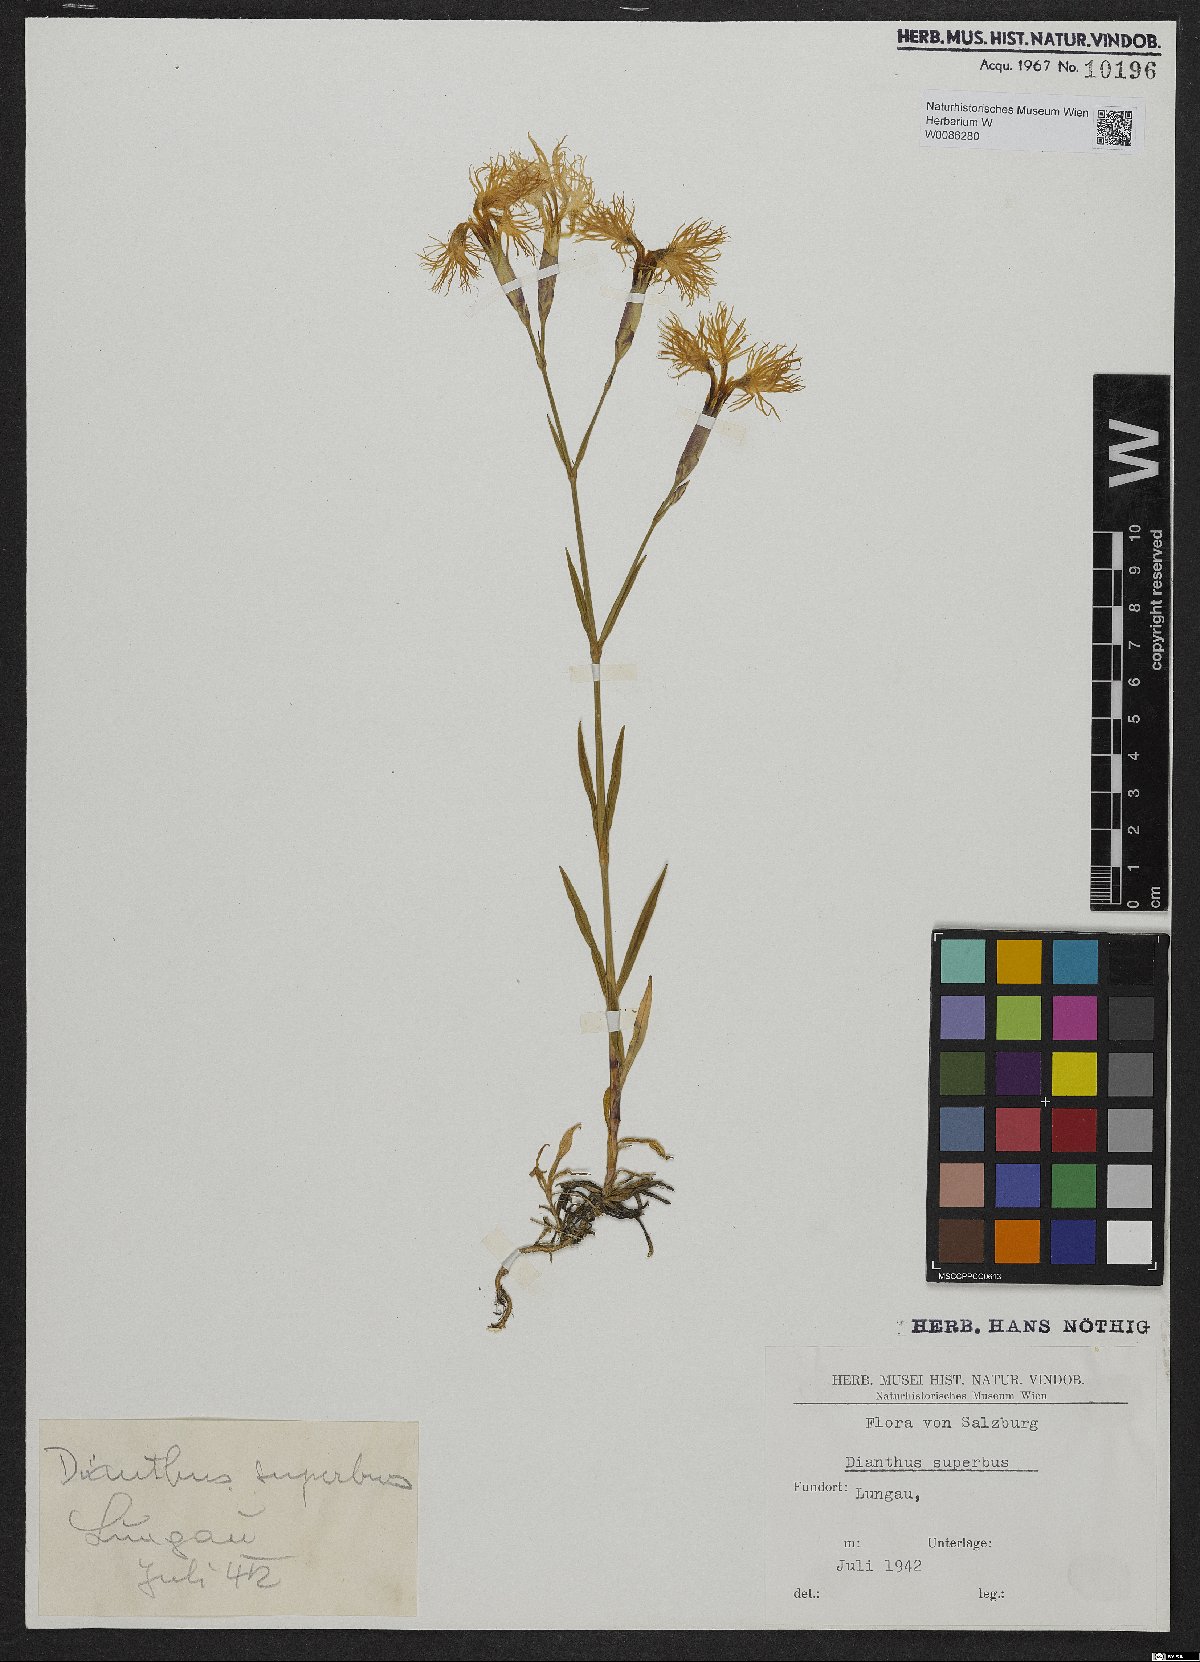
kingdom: Plantae
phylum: Tracheophyta
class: Magnoliopsida
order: Caryophyllales
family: Caryophyllaceae
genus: Dianthus
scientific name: Dianthus superbus
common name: Fringed pink
